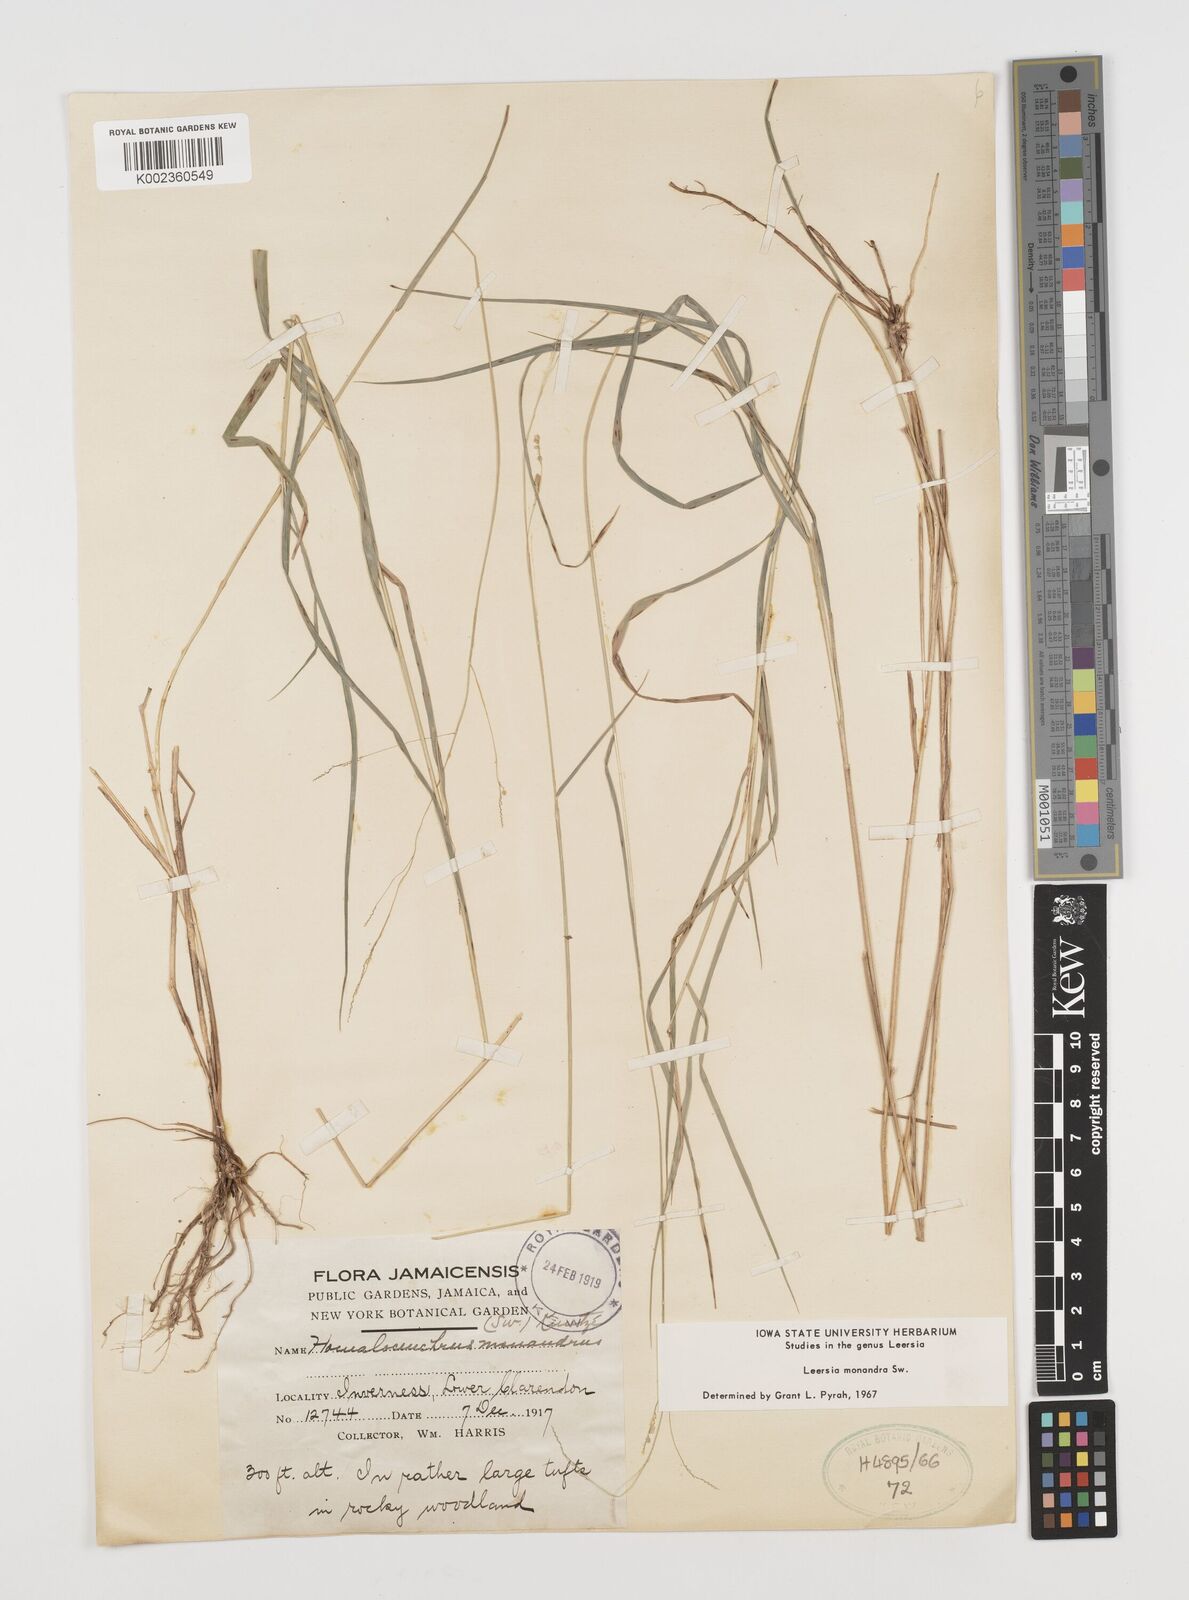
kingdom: Plantae
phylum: Tracheophyta
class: Liliopsida
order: Poales
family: Poaceae
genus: Leersia
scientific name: Leersia monandra
